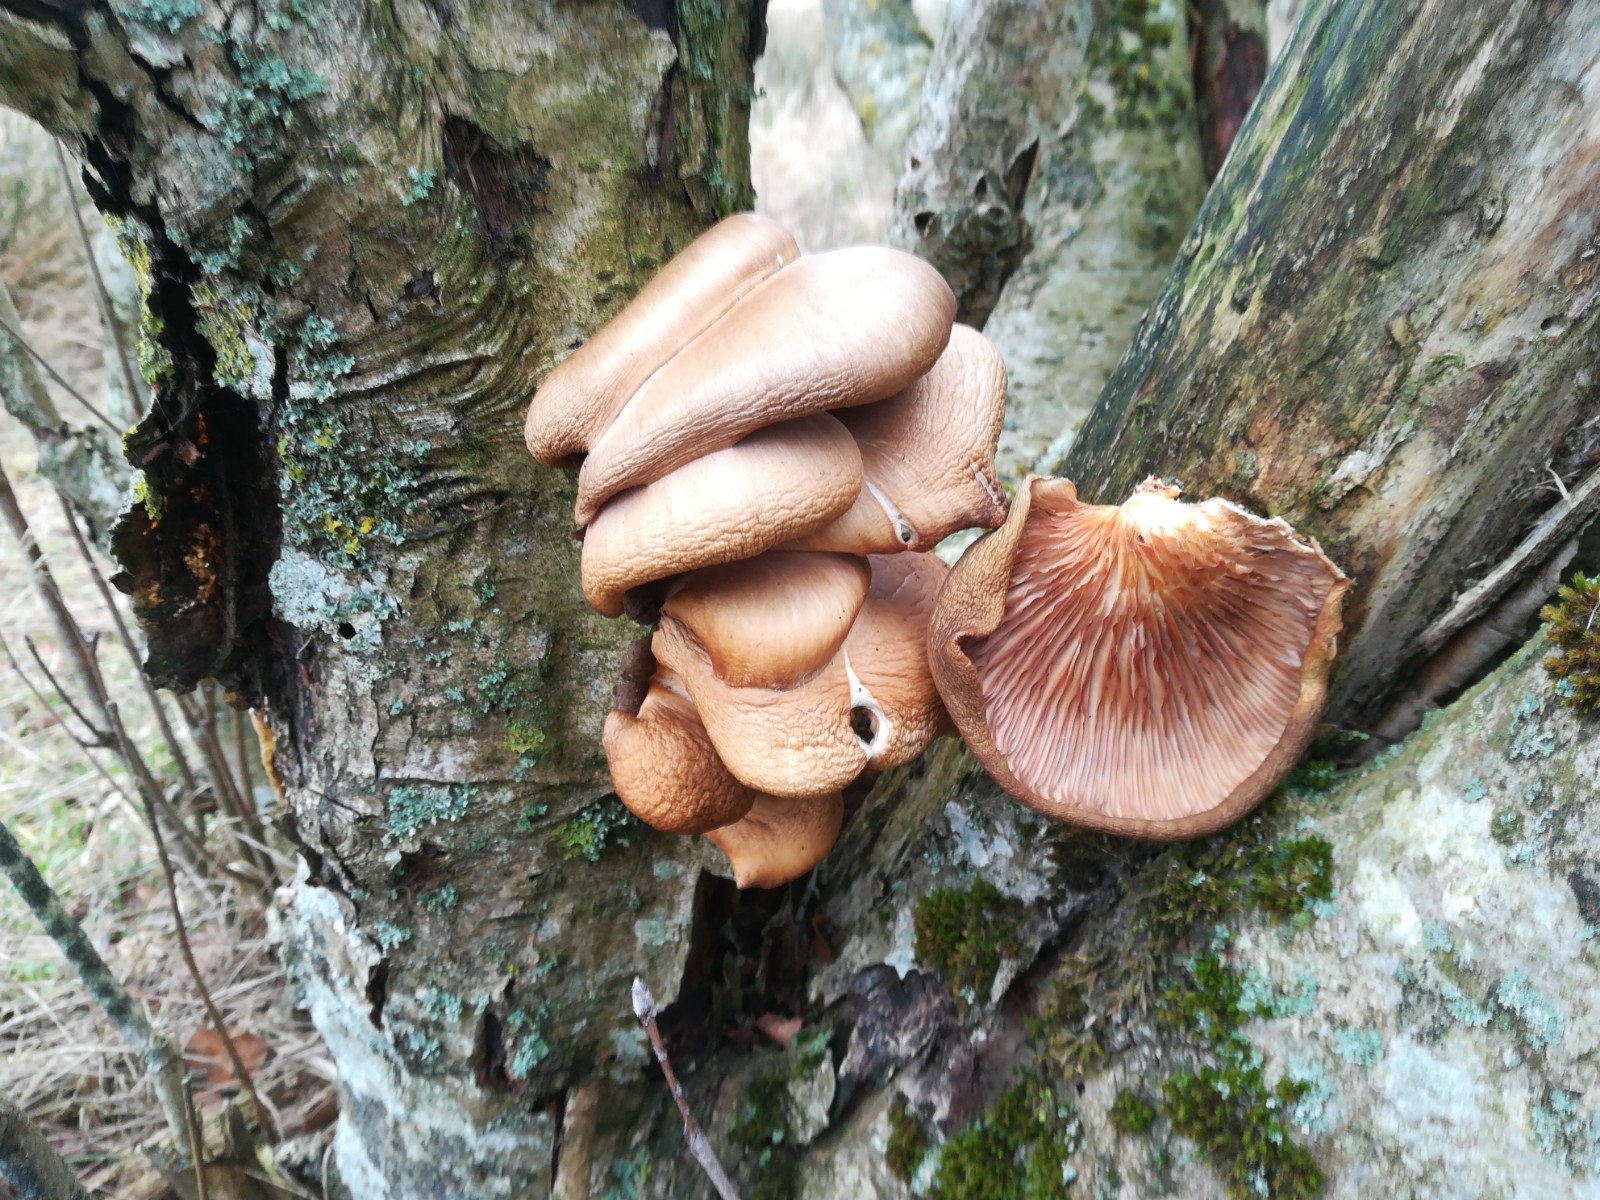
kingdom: Fungi
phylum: Basidiomycota
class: Agaricomycetes
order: Agaricales
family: Pleurotaceae
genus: Pleurotus
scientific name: Pleurotus ostreatus
